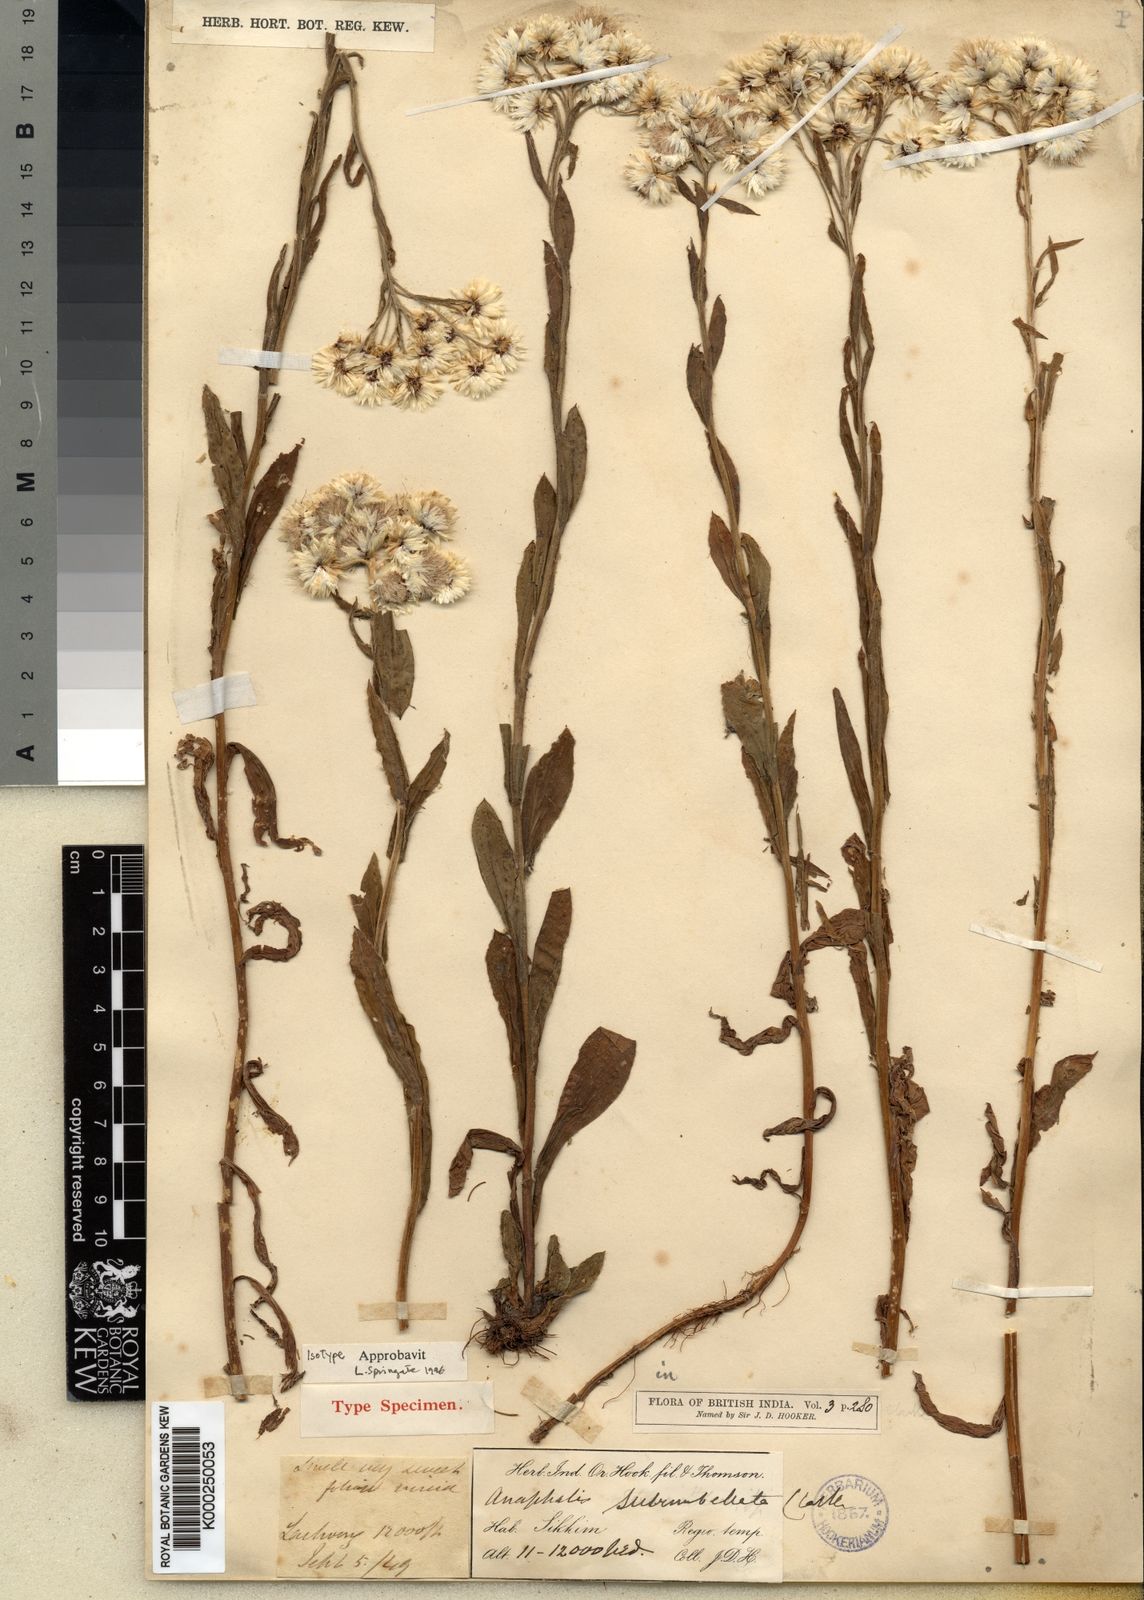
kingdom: Plantae
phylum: Tracheophyta
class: Magnoliopsida
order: Asterales
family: Asteraceae
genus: Anaphalis
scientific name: Anaphalis subumbellata
